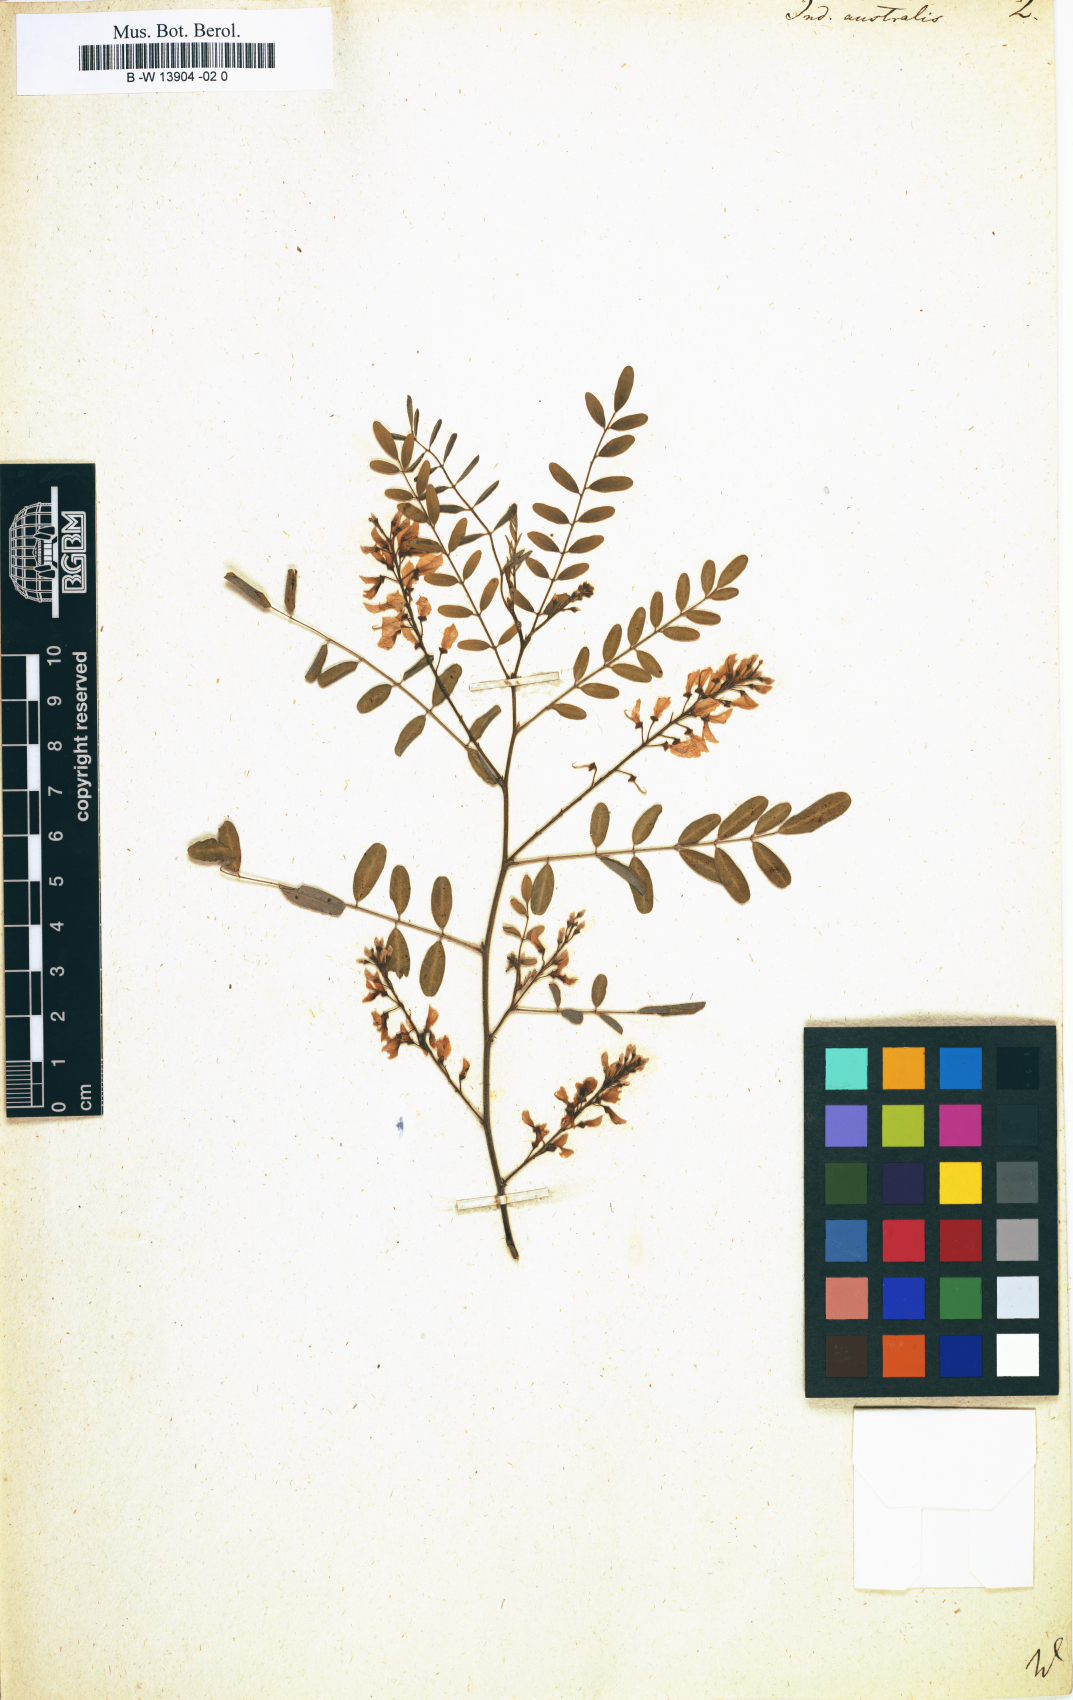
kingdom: Plantae
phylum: Tracheophyta
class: Magnoliopsida
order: Fabales
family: Fabaceae
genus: Indigofera
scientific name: Indigofera australis
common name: Australian indigo
